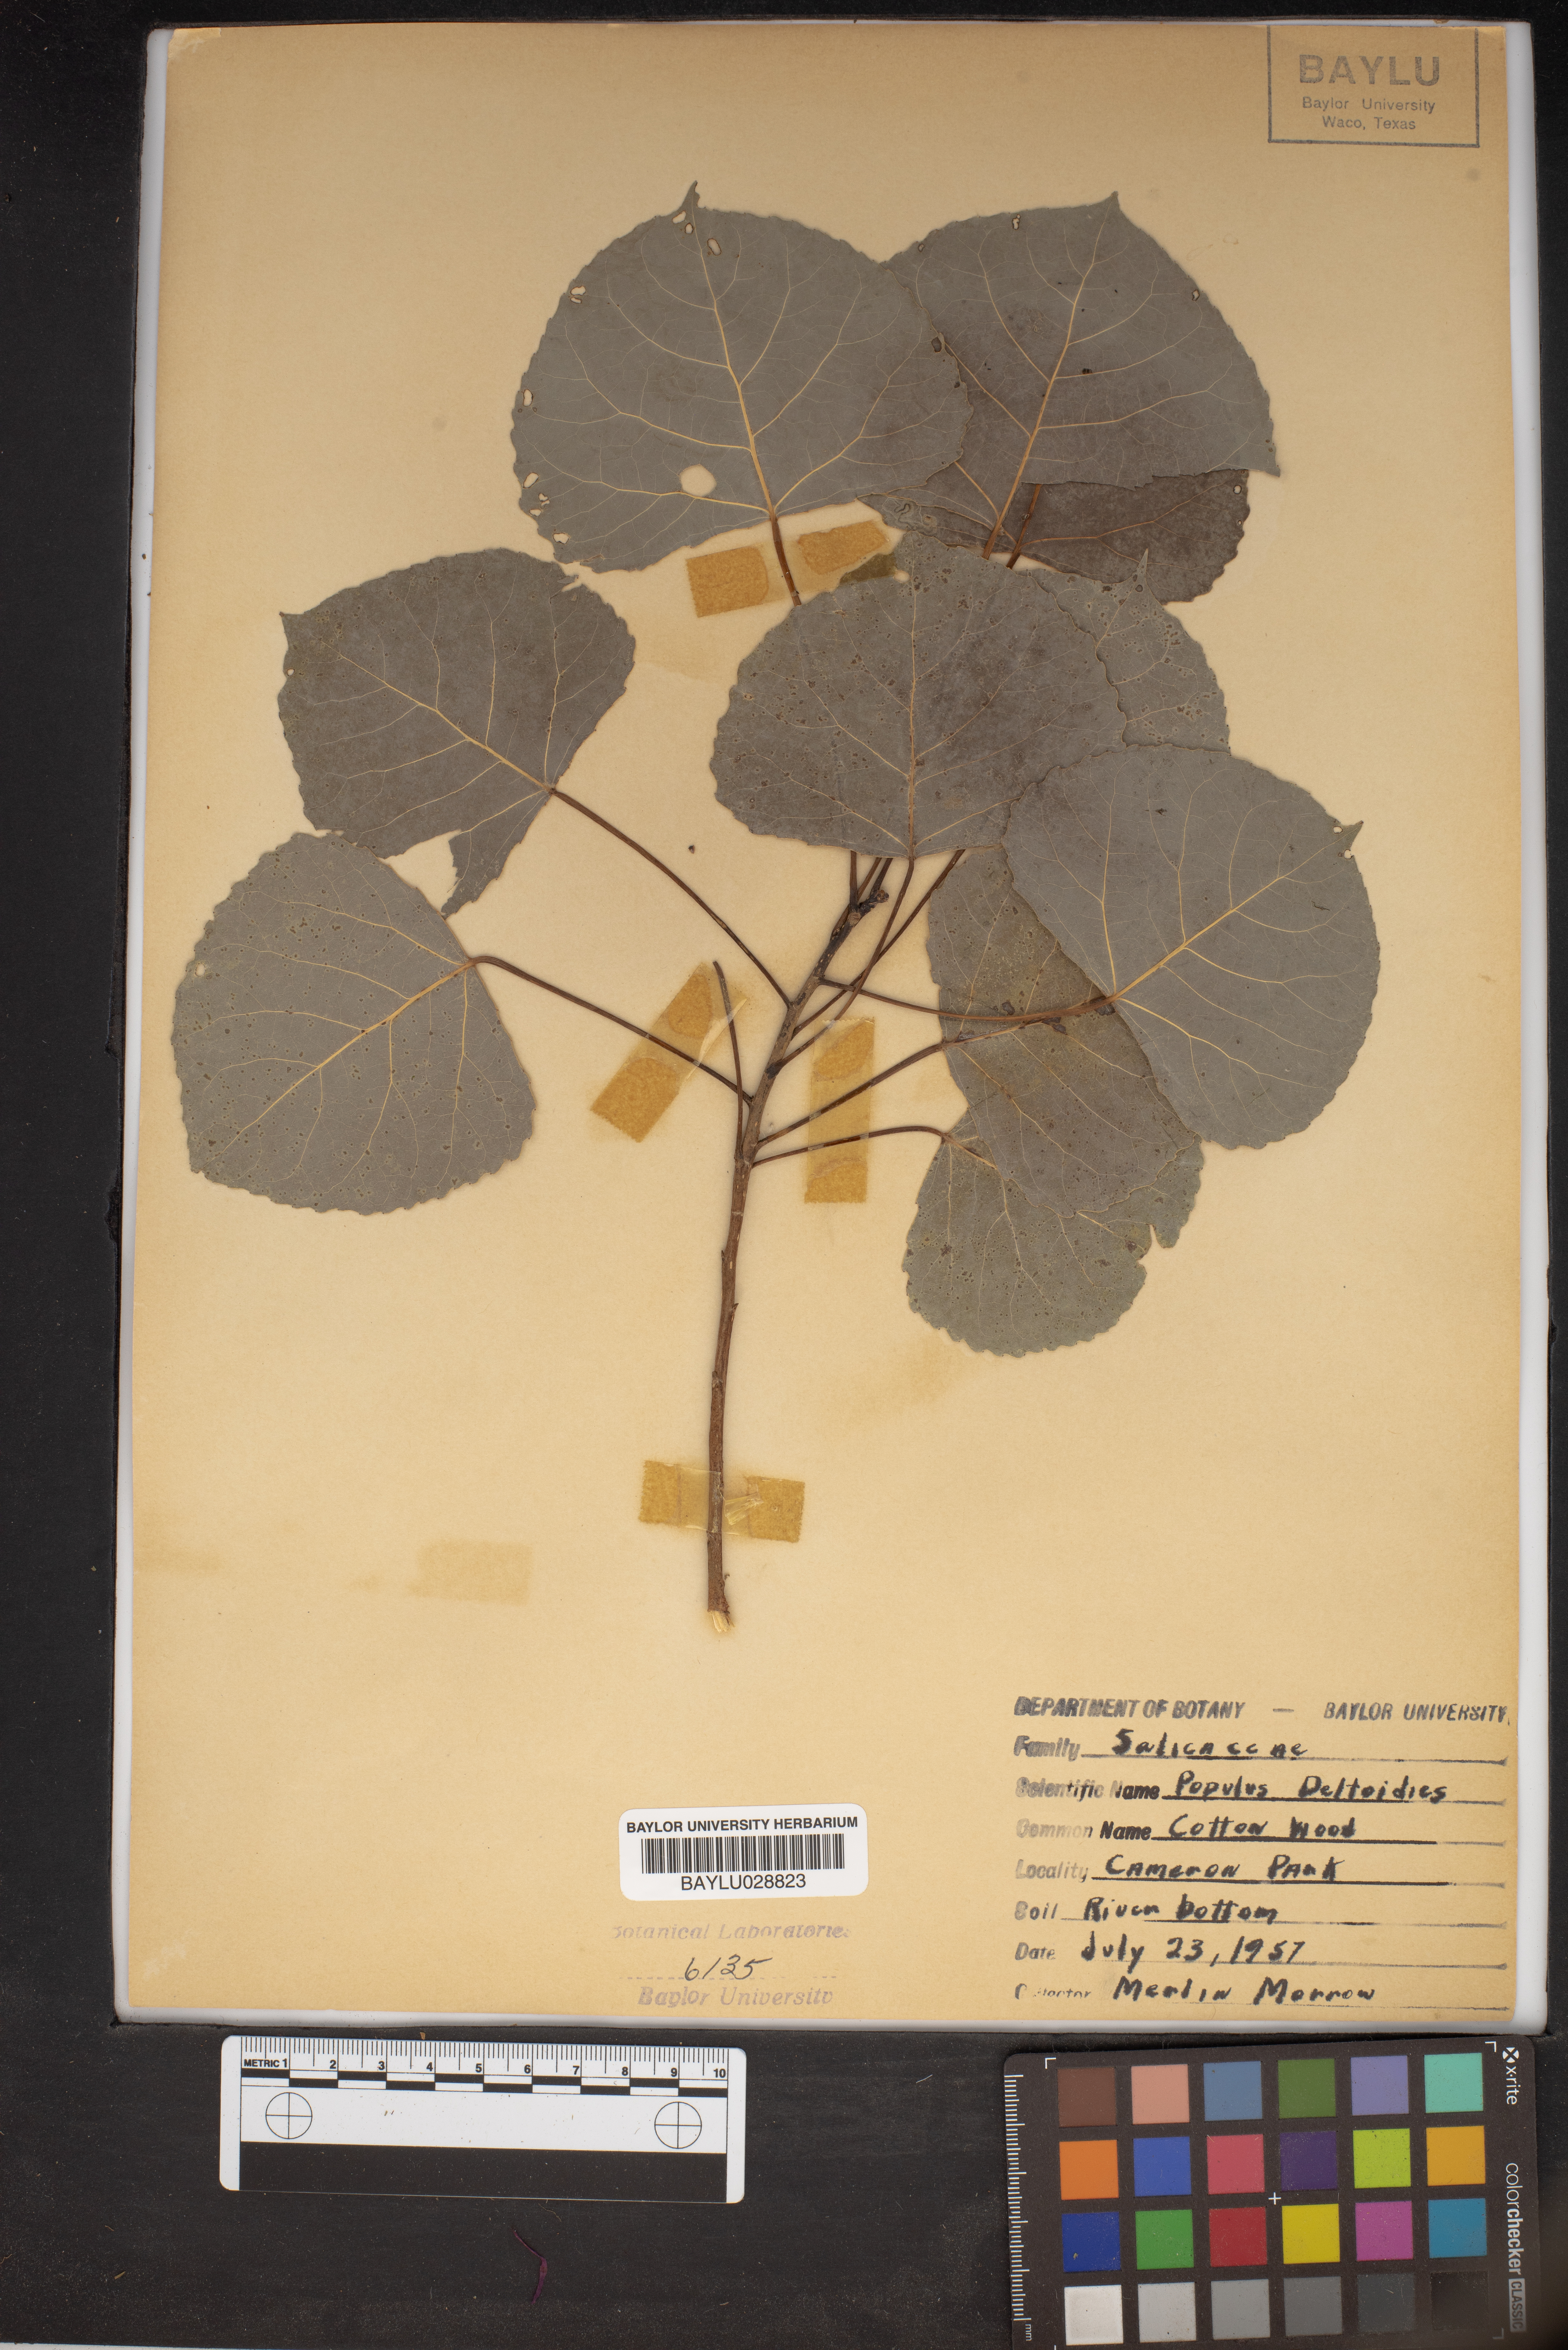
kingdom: Plantae
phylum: Tracheophyta
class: Magnoliopsida
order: Malpighiales
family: Salicaceae
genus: Populus
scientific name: Populus deltoides
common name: Eastern cottonwood
